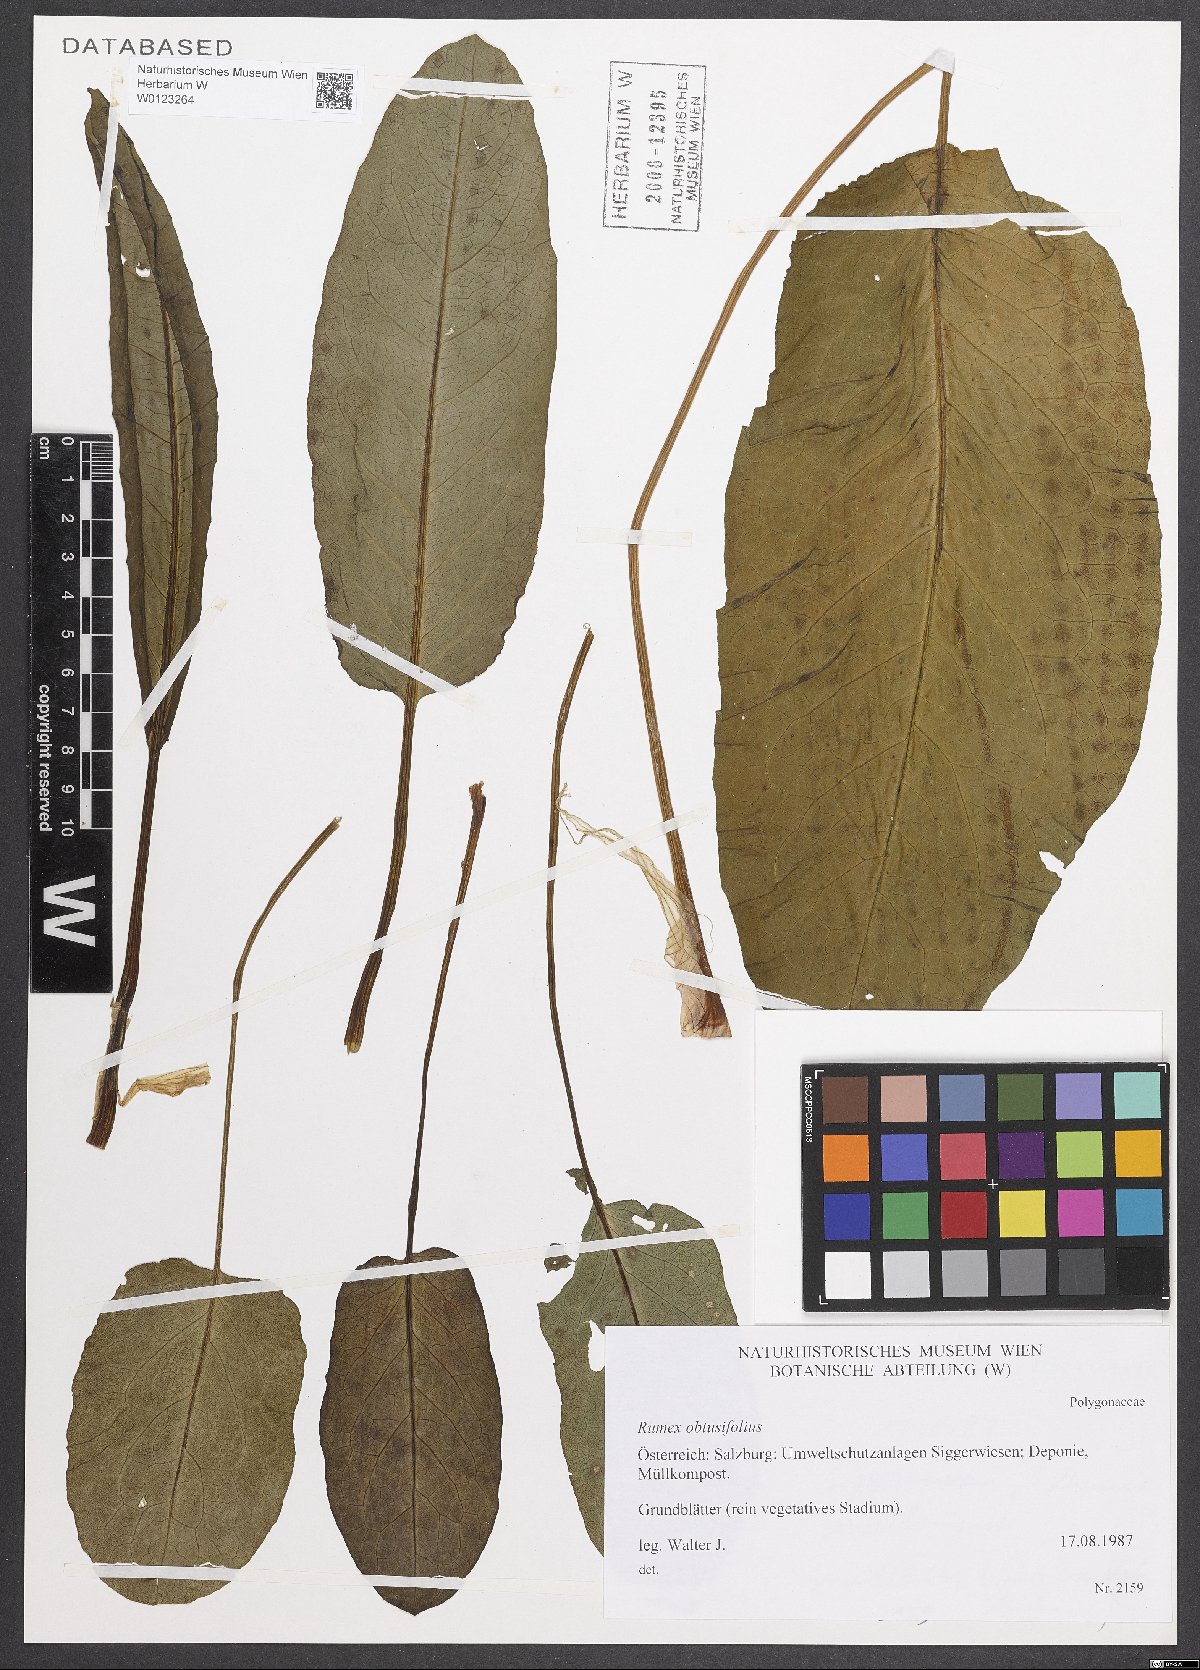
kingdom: Plantae
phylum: Tracheophyta
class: Magnoliopsida
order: Caryophyllales
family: Polygonaceae
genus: Rumex
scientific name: Rumex obtusifolius
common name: Bitter dock
